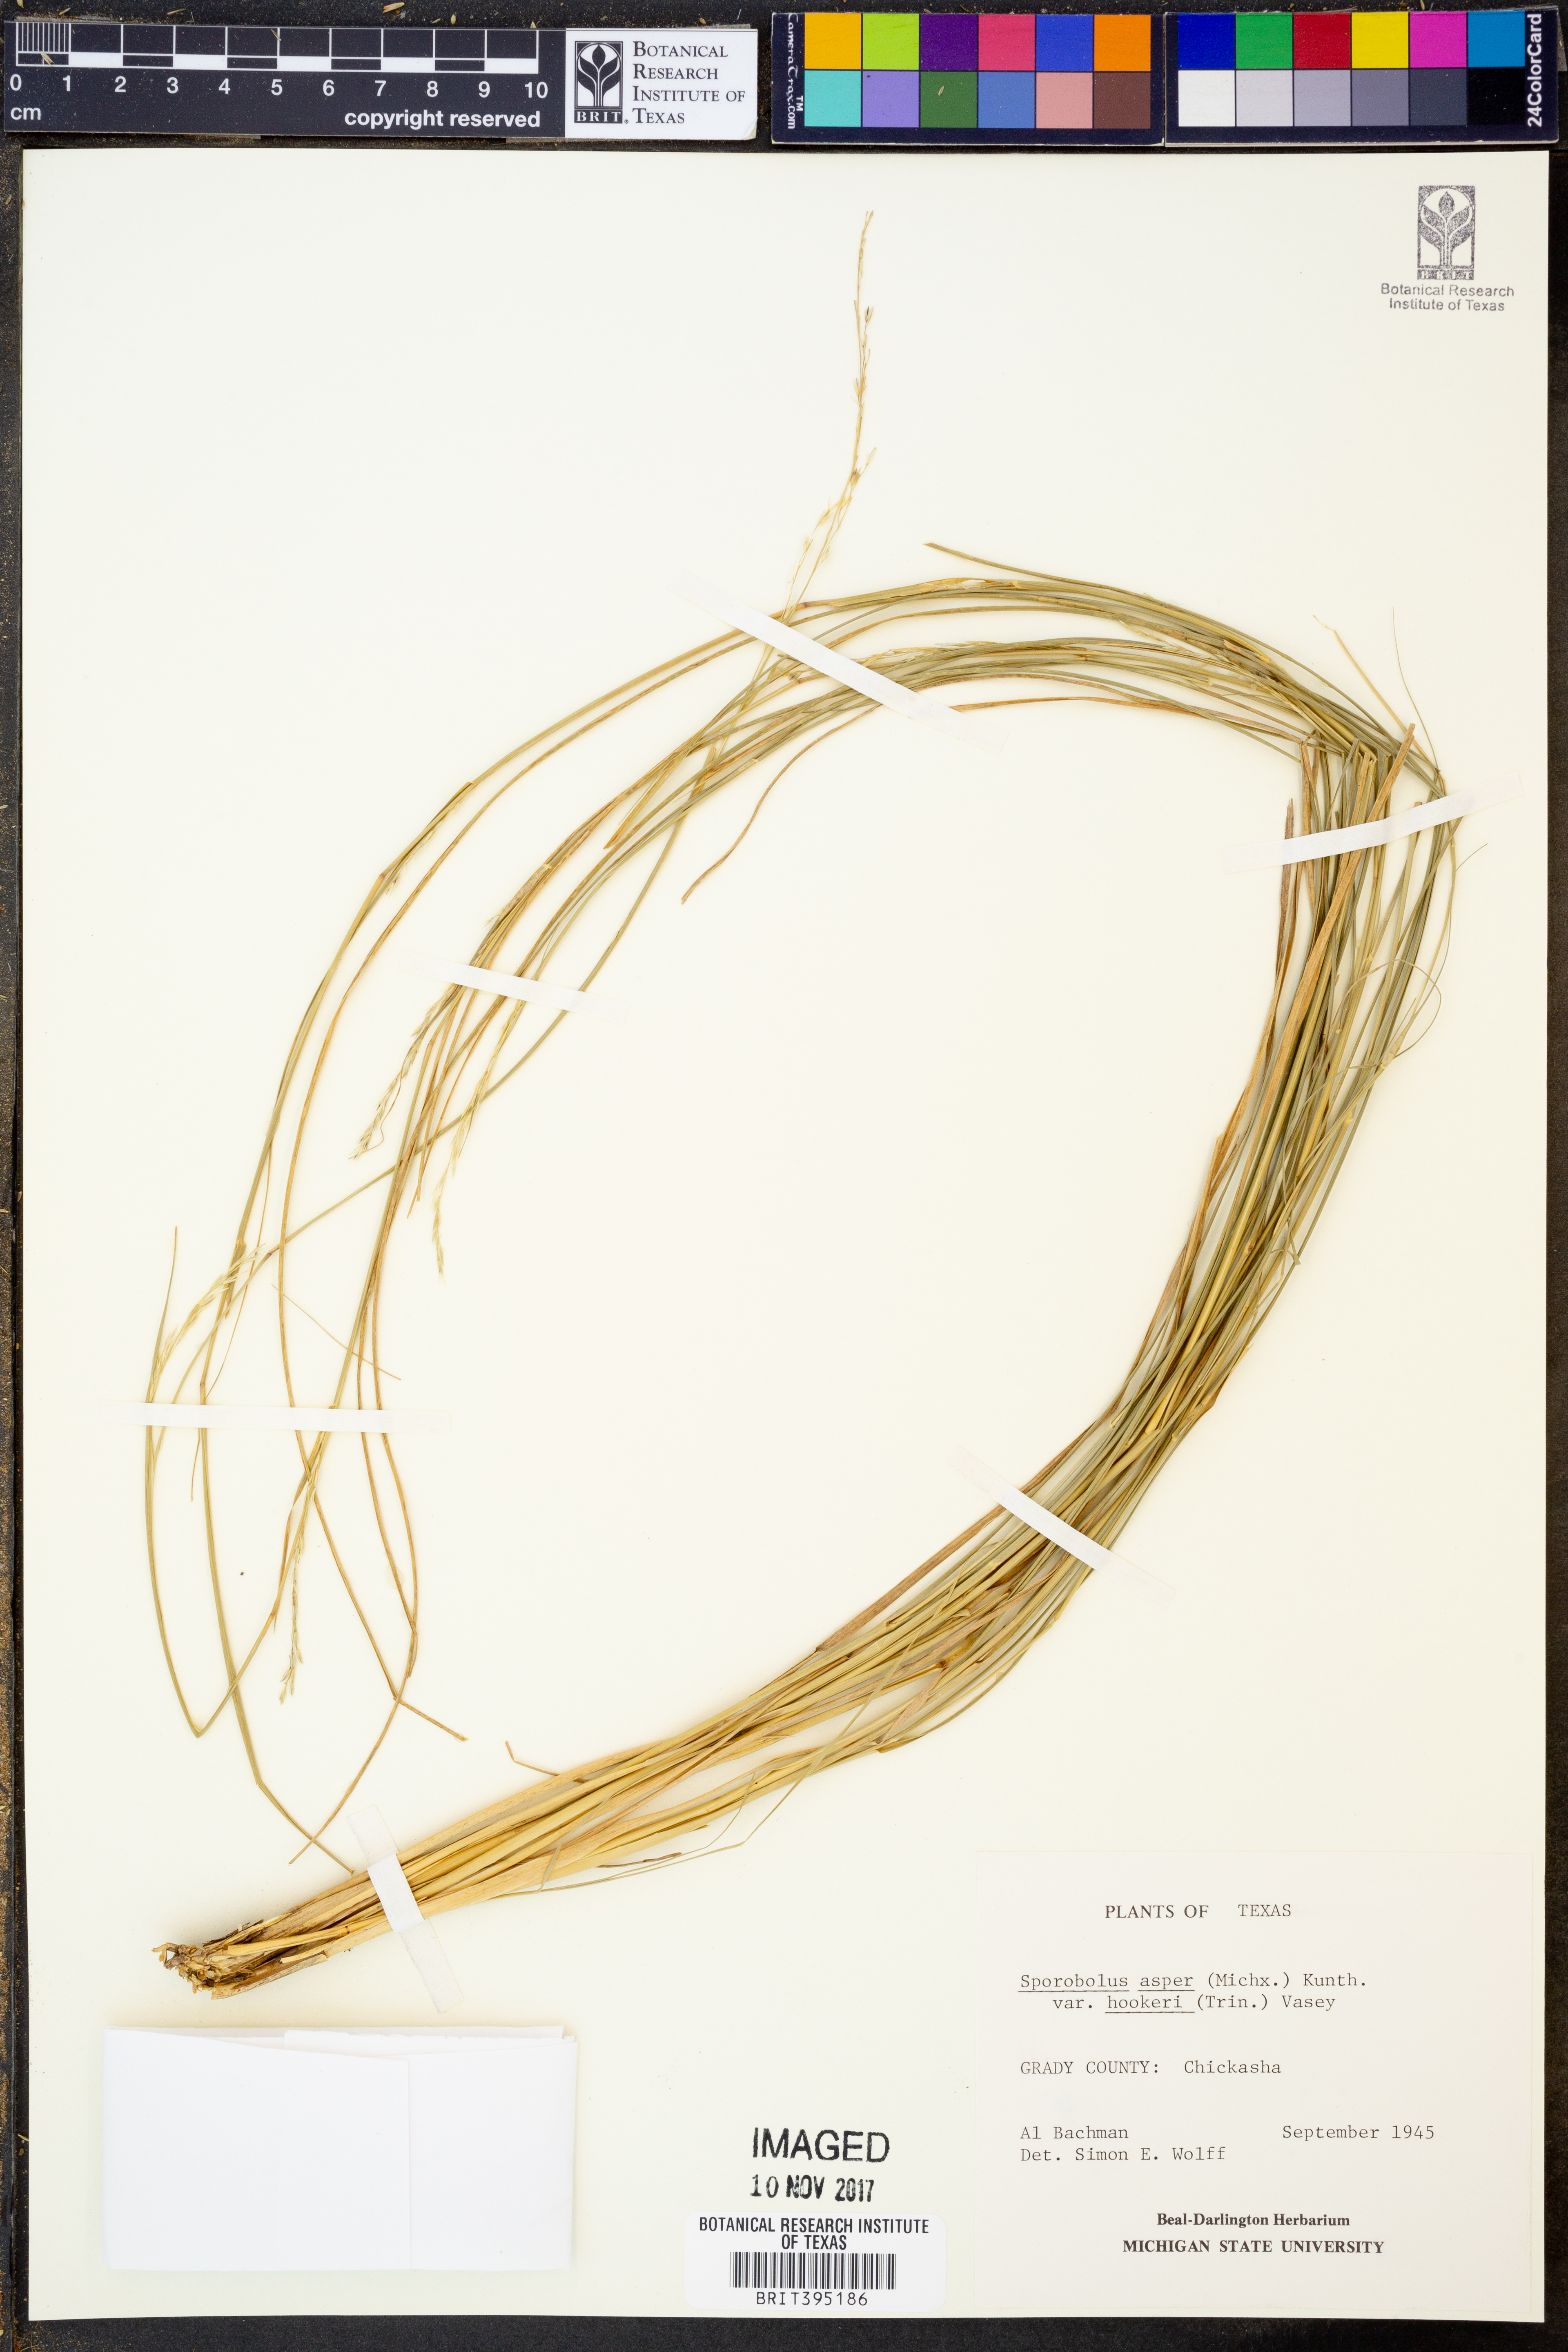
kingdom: Plantae
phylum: Tracheophyta
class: Liliopsida
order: Poales
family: Poaceae
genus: Sporobolus
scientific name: Sporobolus compositus
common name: Rough dropseed
